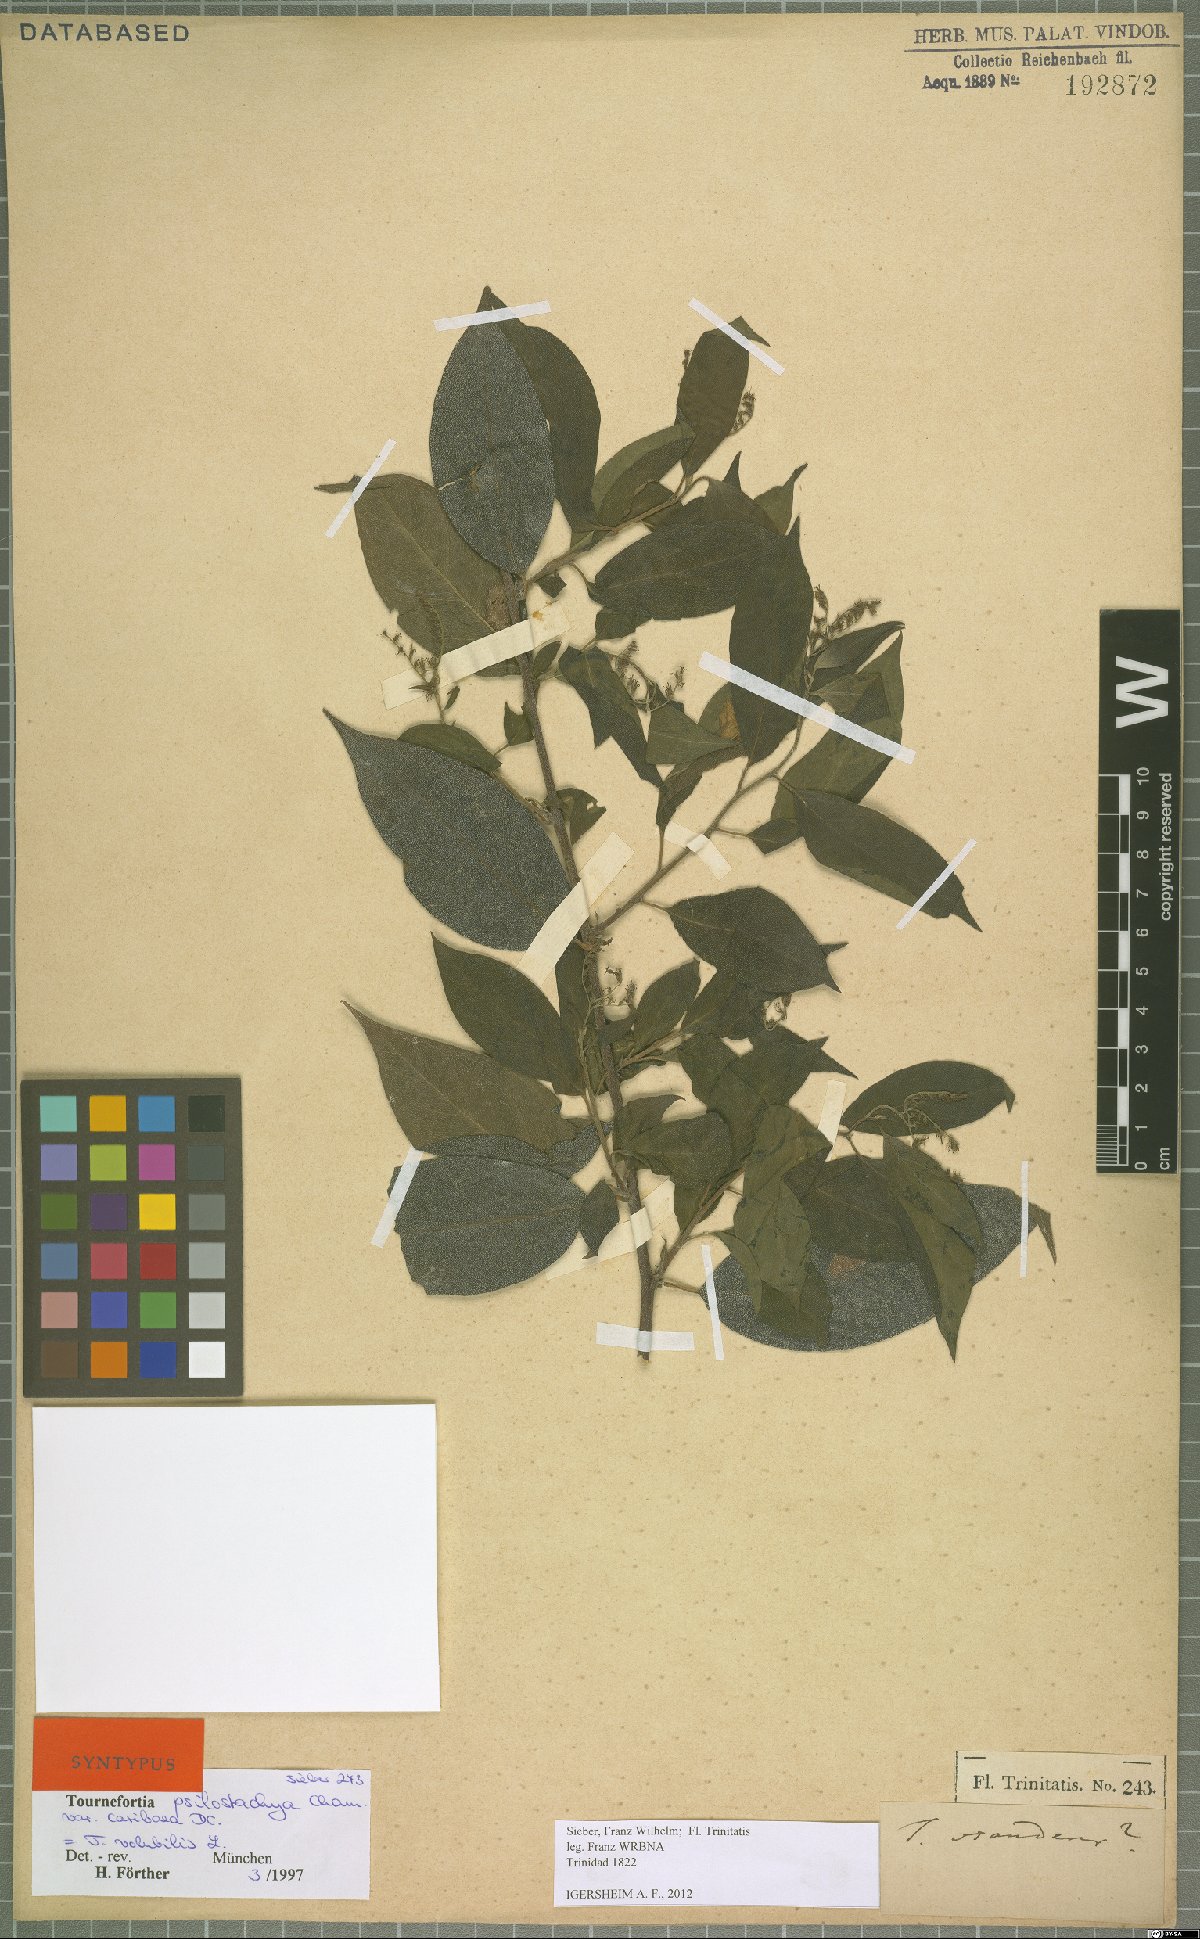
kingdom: Plantae
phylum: Tracheophyta
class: Magnoliopsida
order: Boraginales
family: Heliotropiaceae
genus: Myriopus
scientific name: Myriopus volubilis
